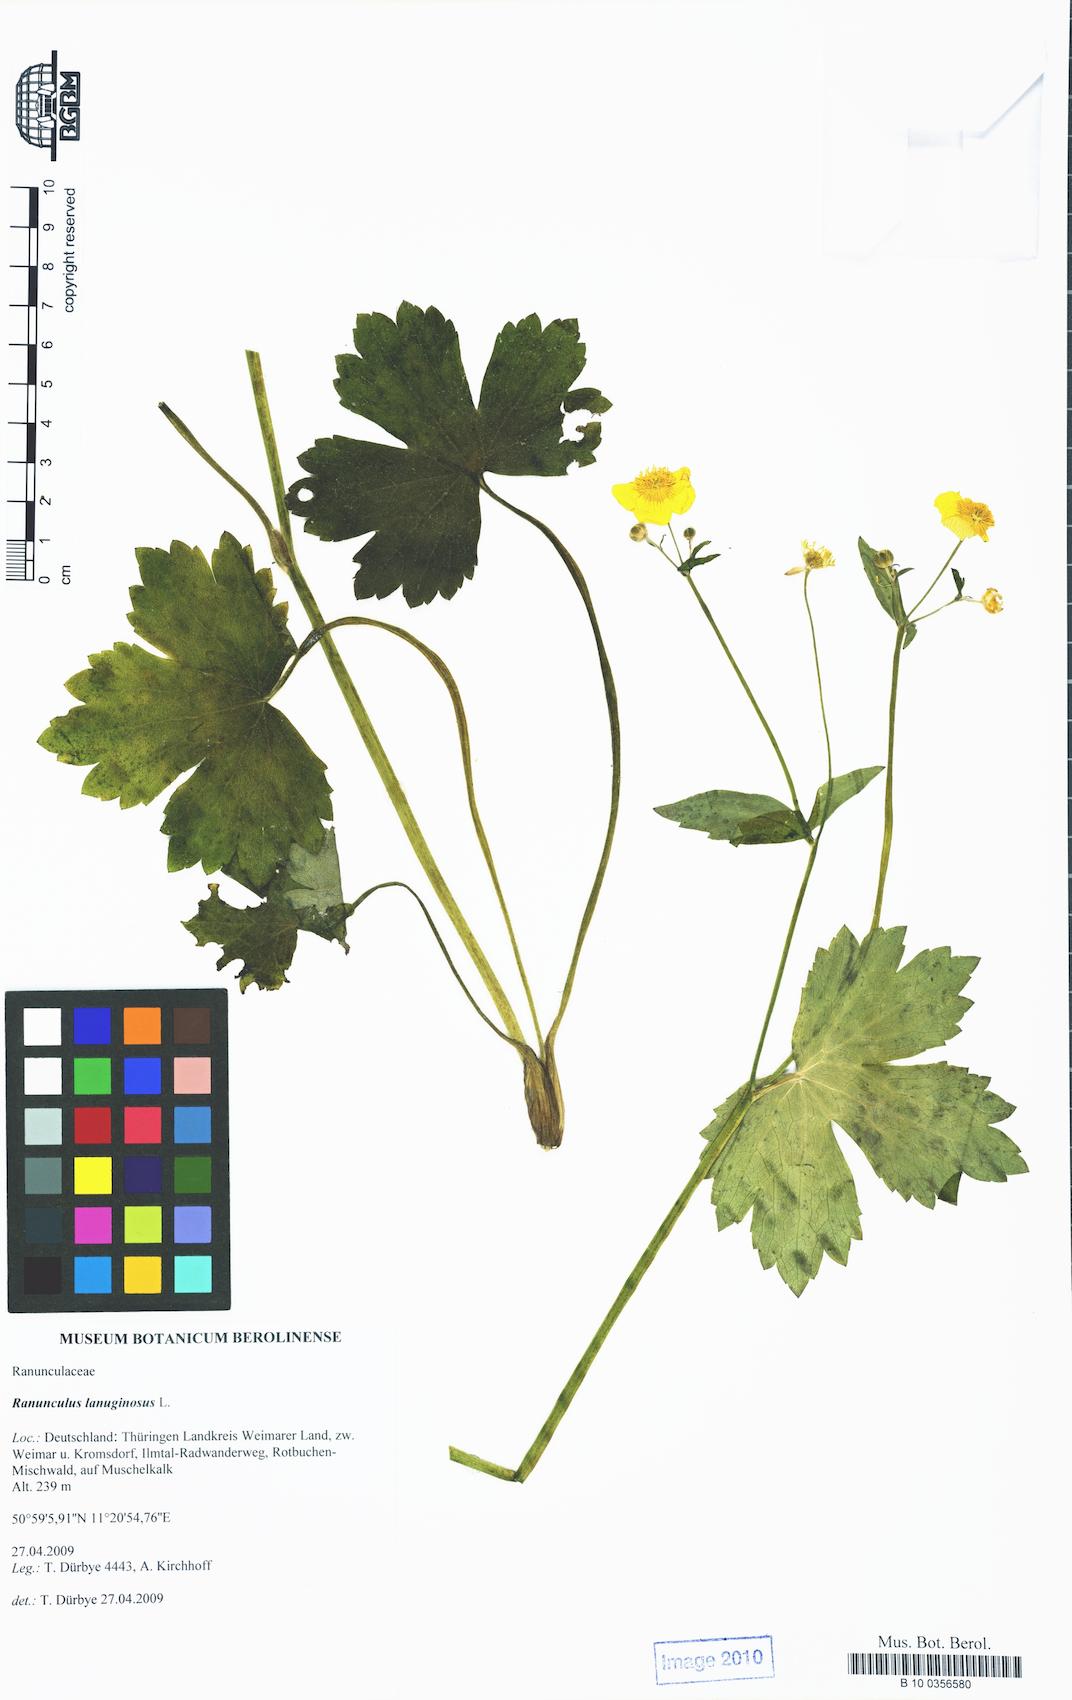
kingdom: Plantae
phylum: Tracheophyta
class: Magnoliopsida
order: Ranunculales
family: Ranunculaceae
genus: Ranunculus
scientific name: Ranunculus lanuginosus
